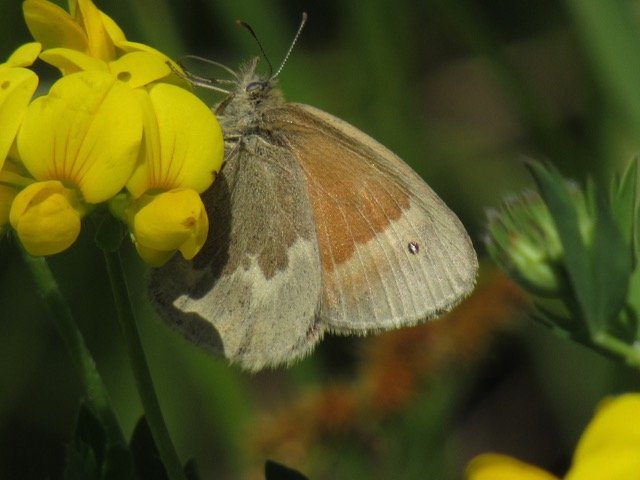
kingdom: Animalia
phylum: Arthropoda
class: Insecta
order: Lepidoptera
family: Nymphalidae
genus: Coenonympha
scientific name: Coenonympha tullia
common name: Large Heath
